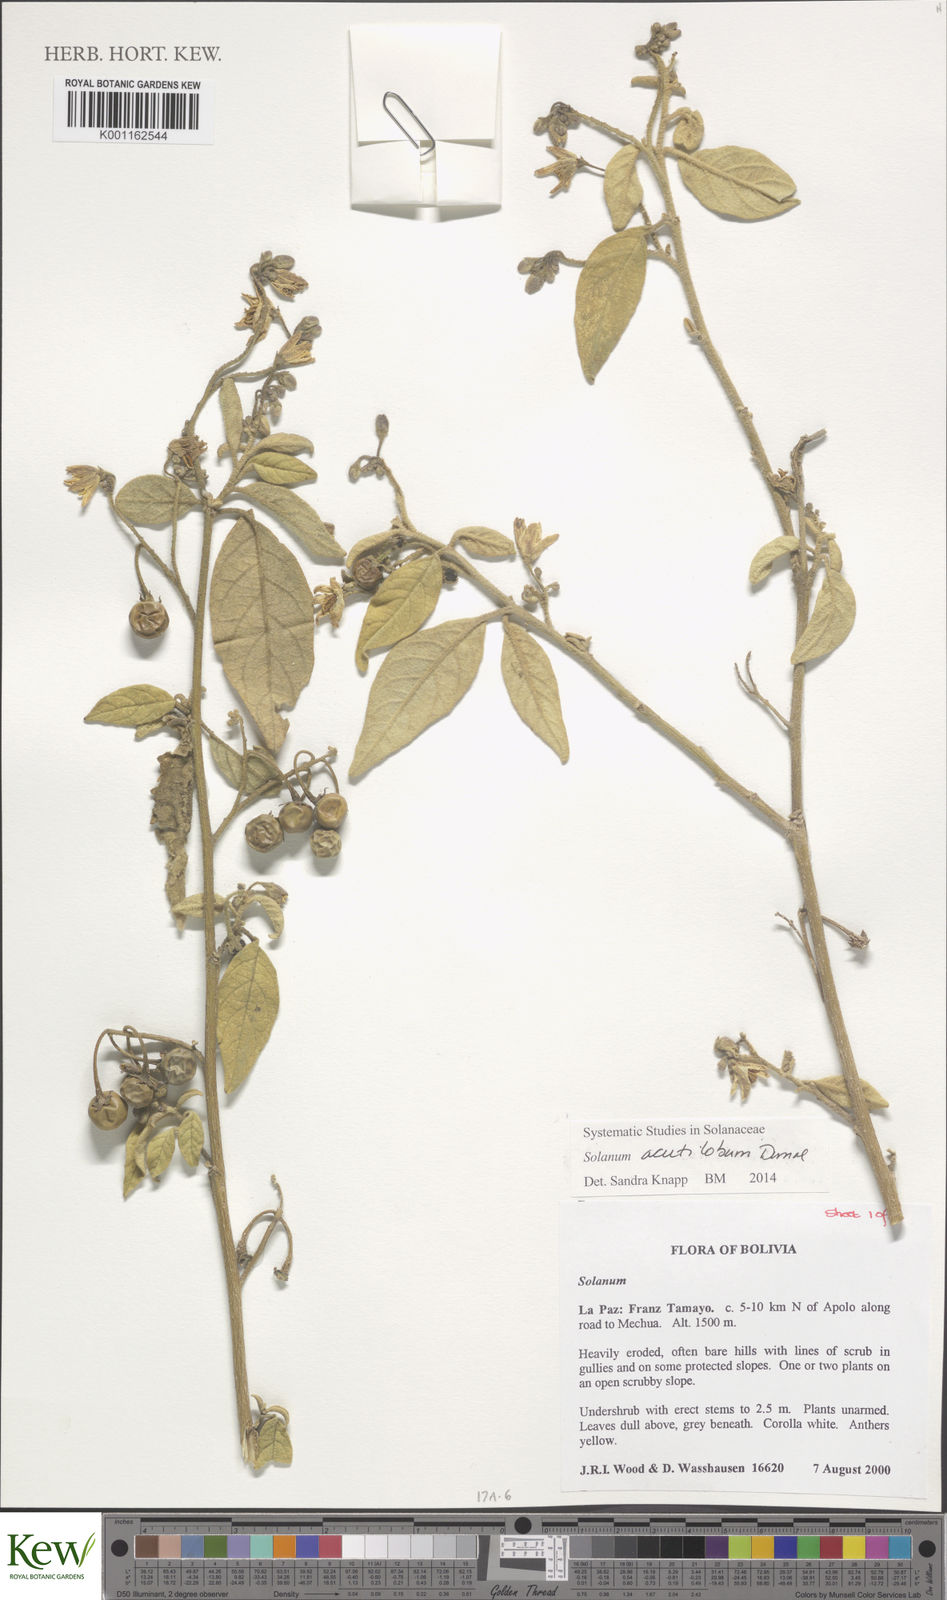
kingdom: Plantae
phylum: Tracheophyta
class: Magnoliopsida
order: Solanales
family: Solanaceae
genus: Solanum
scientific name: Solanum acutilobum
